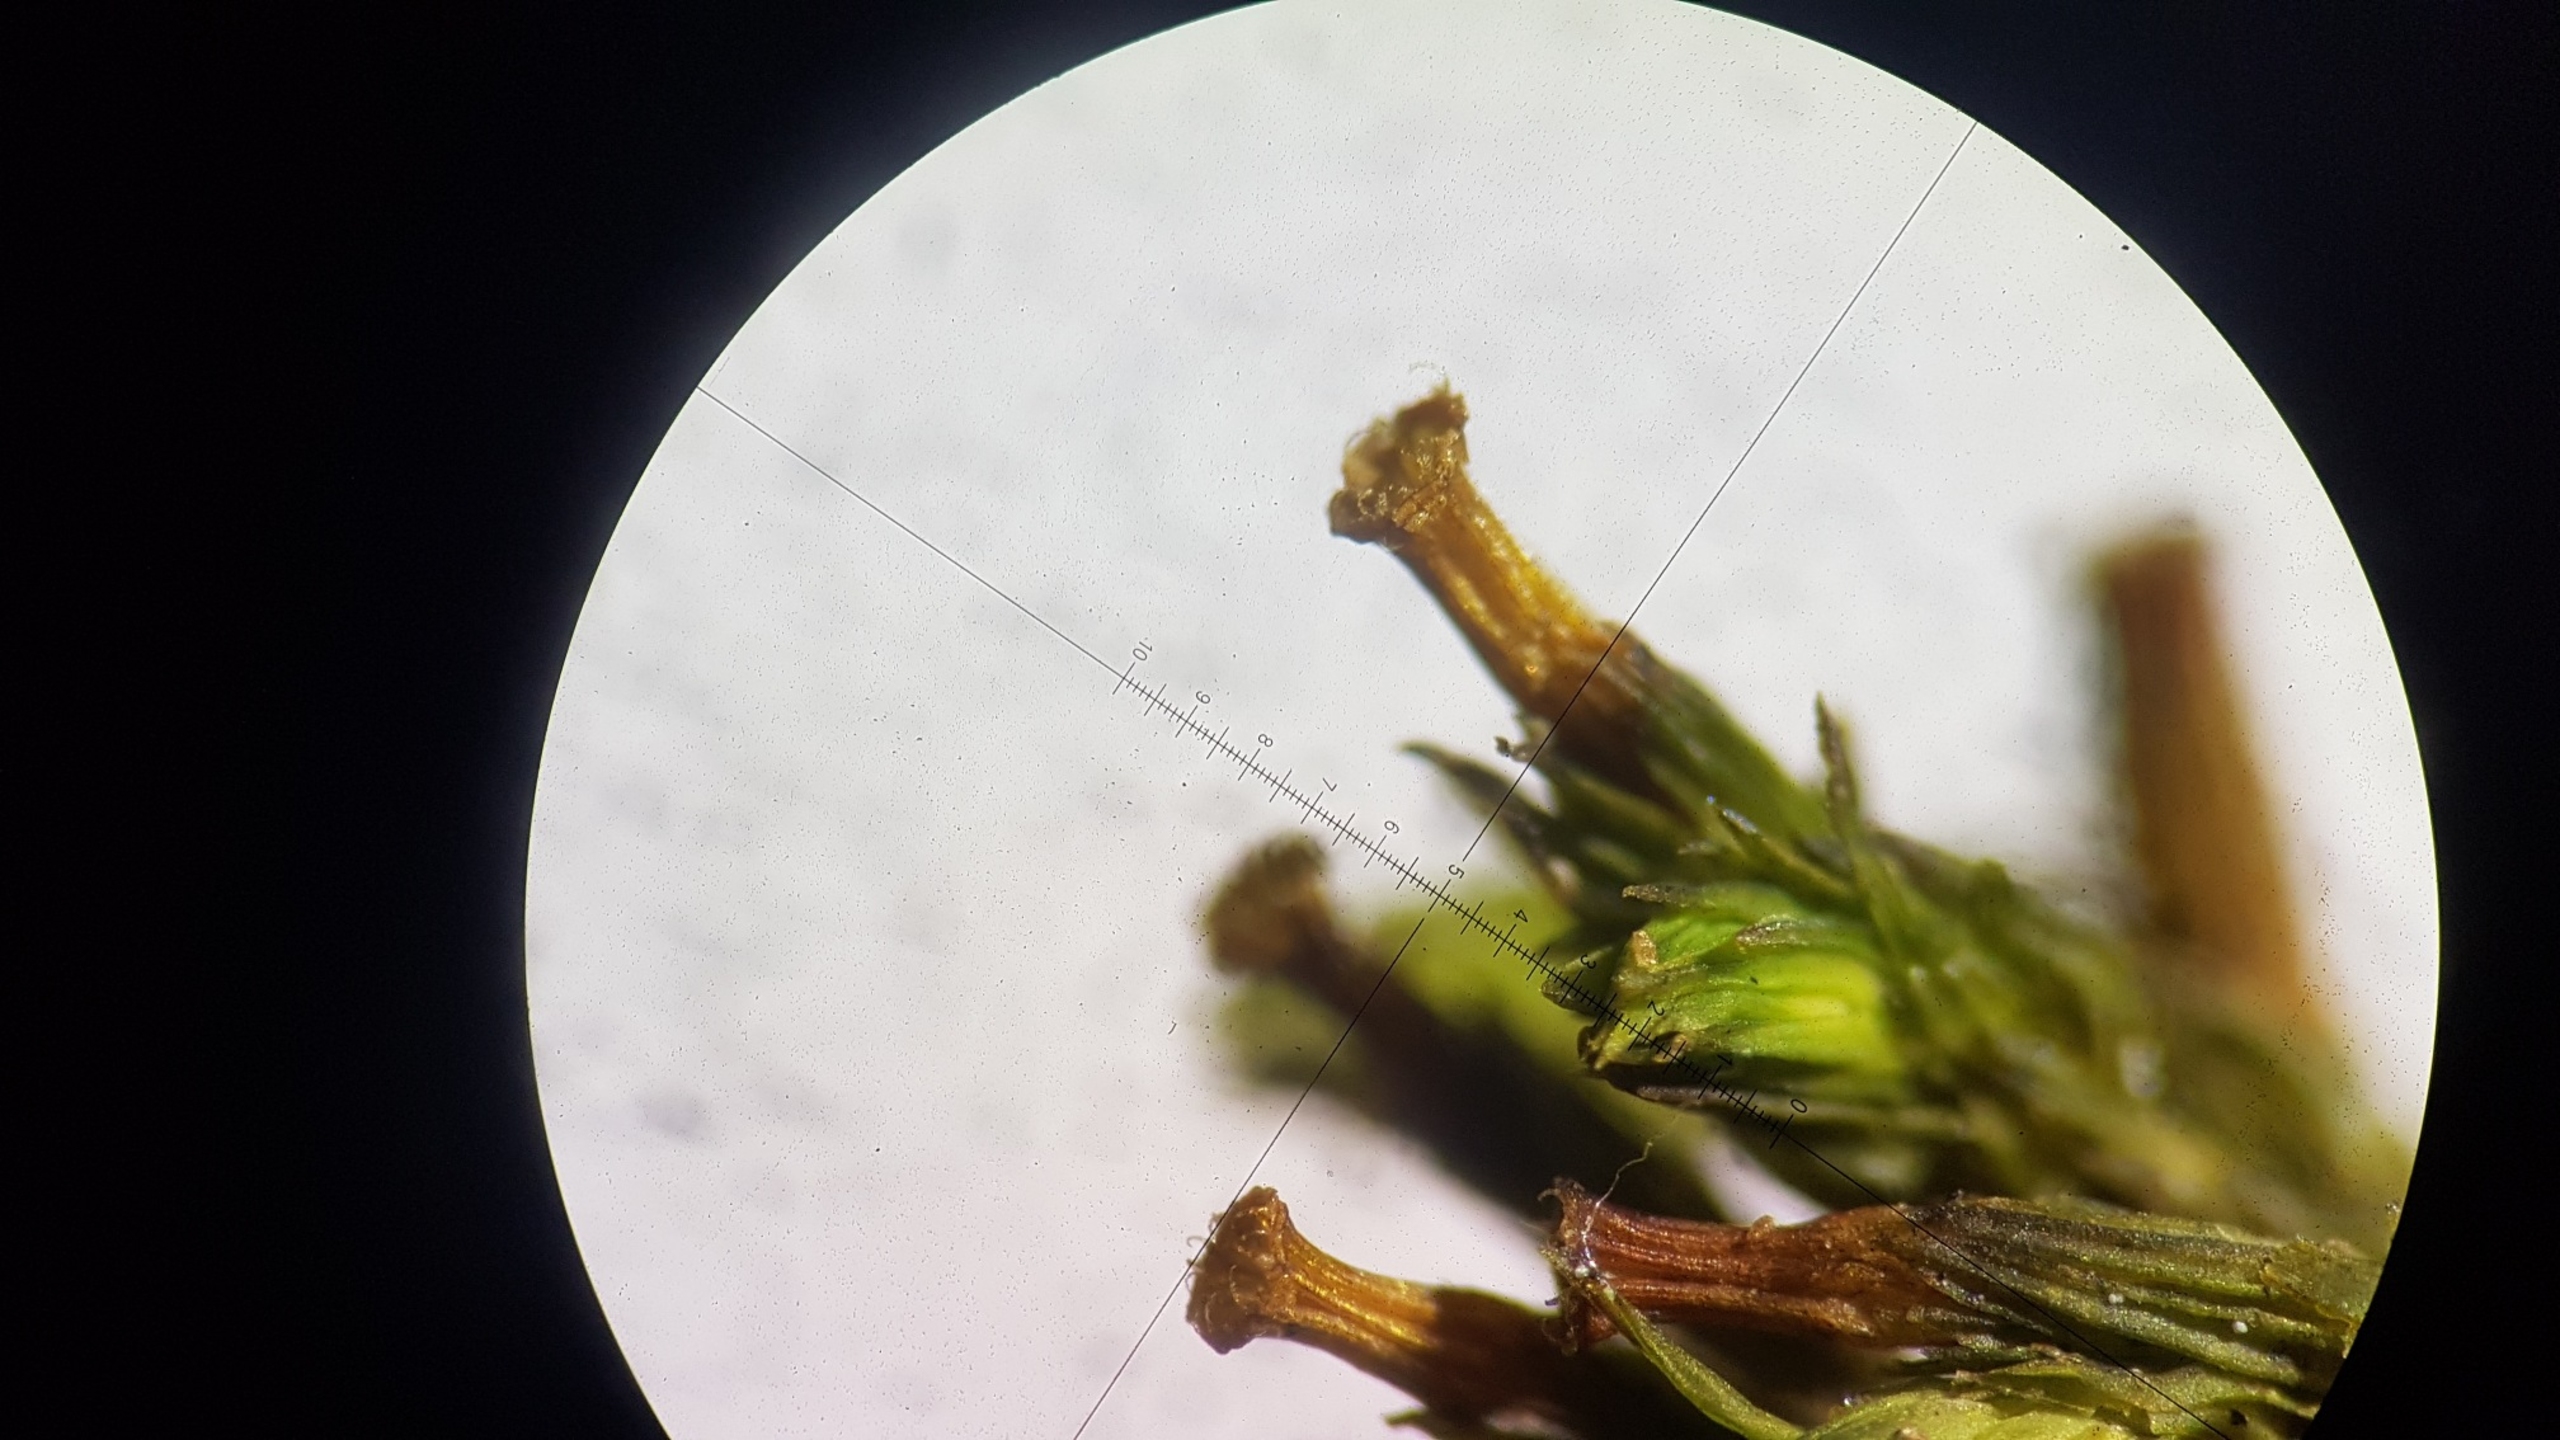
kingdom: Plantae
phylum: Bryophyta
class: Bryopsida
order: Orthotrichales
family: Orthotrichaceae
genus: Orthotrichum
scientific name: Orthotrichum stramineum
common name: Strågul furehætte
